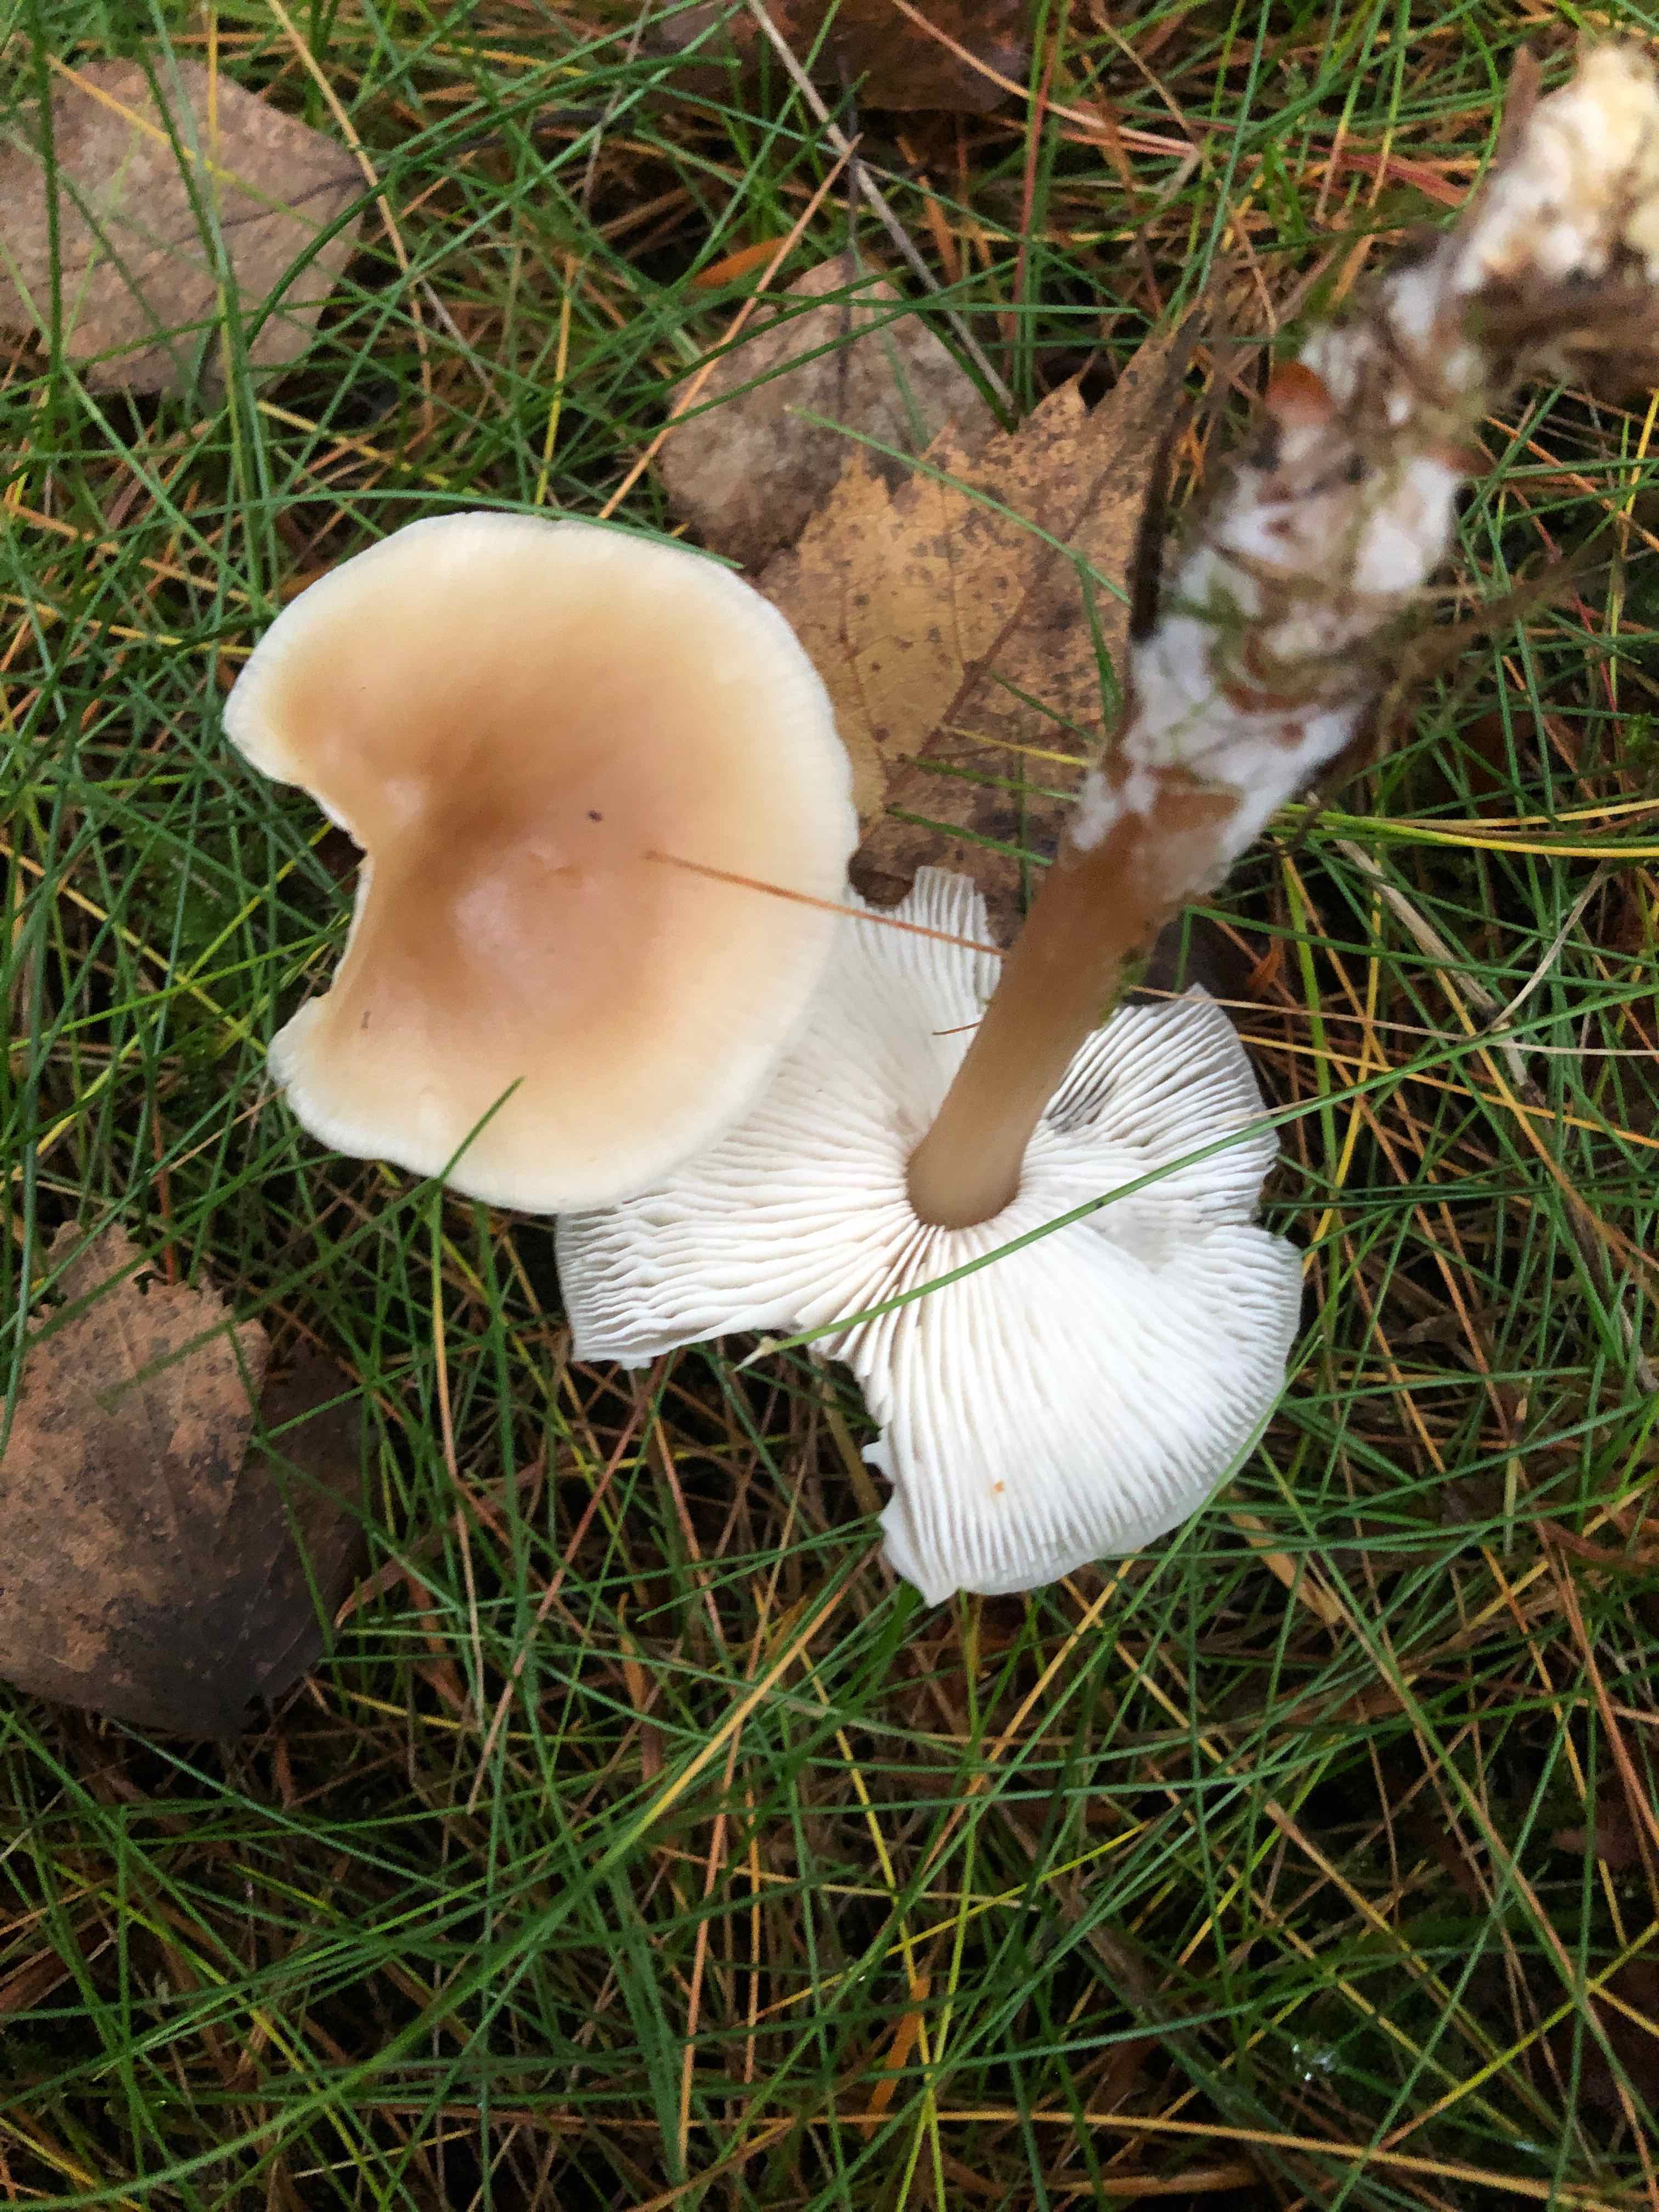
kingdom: Fungi
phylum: Basidiomycota
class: Agaricomycetes
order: Agaricales
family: Omphalotaceae
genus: Rhodocollybia
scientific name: Rhodocollybia asema
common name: horngrå fladhat
